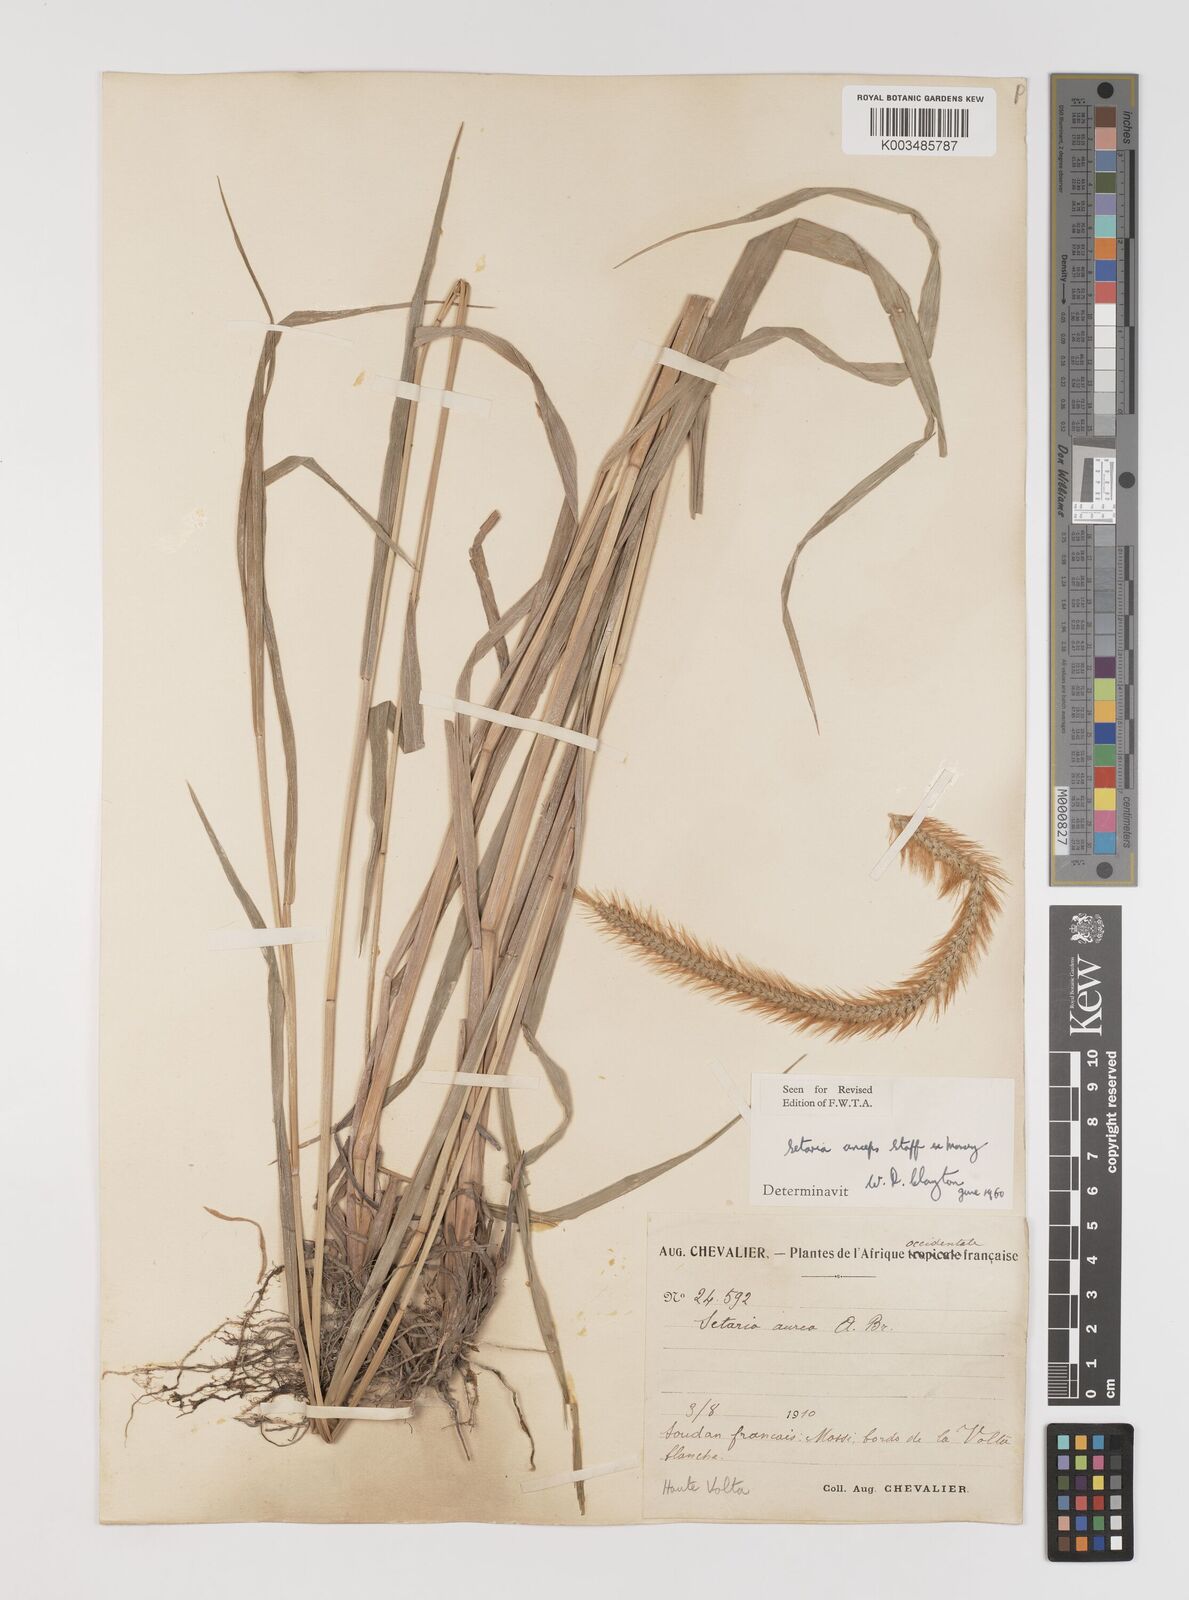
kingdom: Plantae
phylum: Tracheophyta
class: Liliopsida
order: Poales
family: Poaceae
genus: Setaria
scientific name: Setaria sphacelata
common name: African bristlegrass
